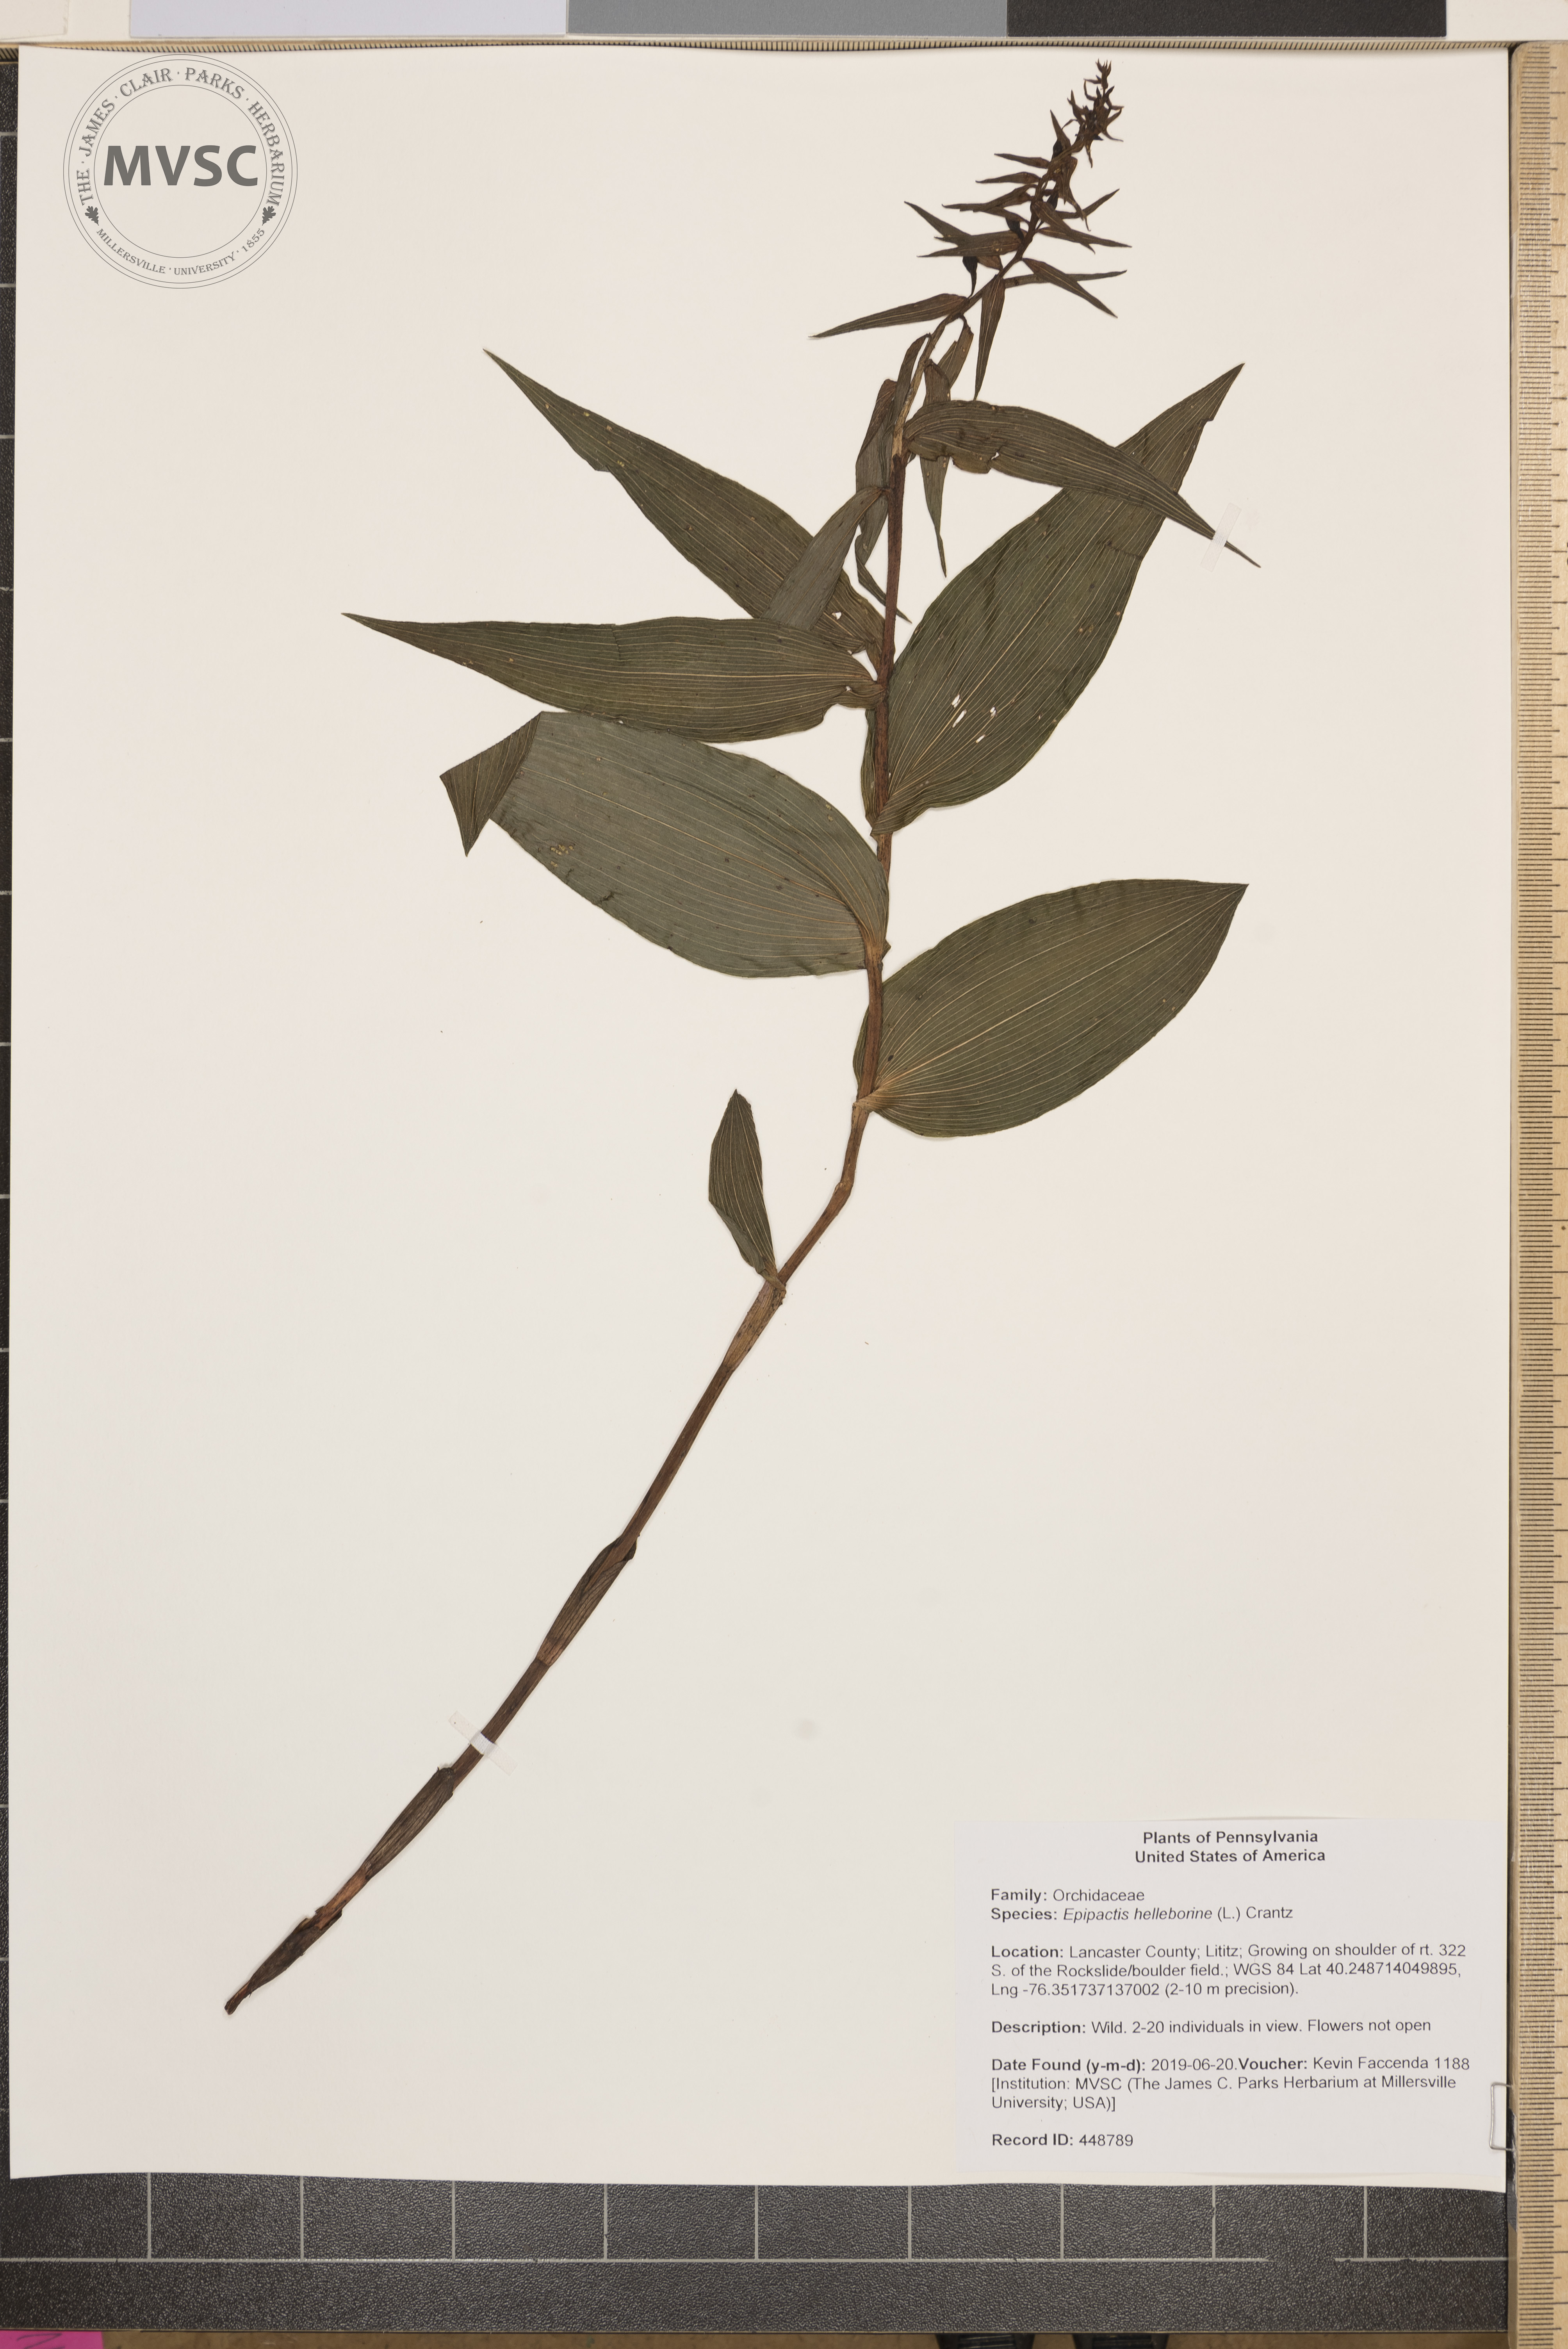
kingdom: Plantae
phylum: Tracheophyta
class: Liliopsida
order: Asparagales
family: Orchidaceae
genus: Epipactis
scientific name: Epipactis helleborine
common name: Broad-leaved helleborine
